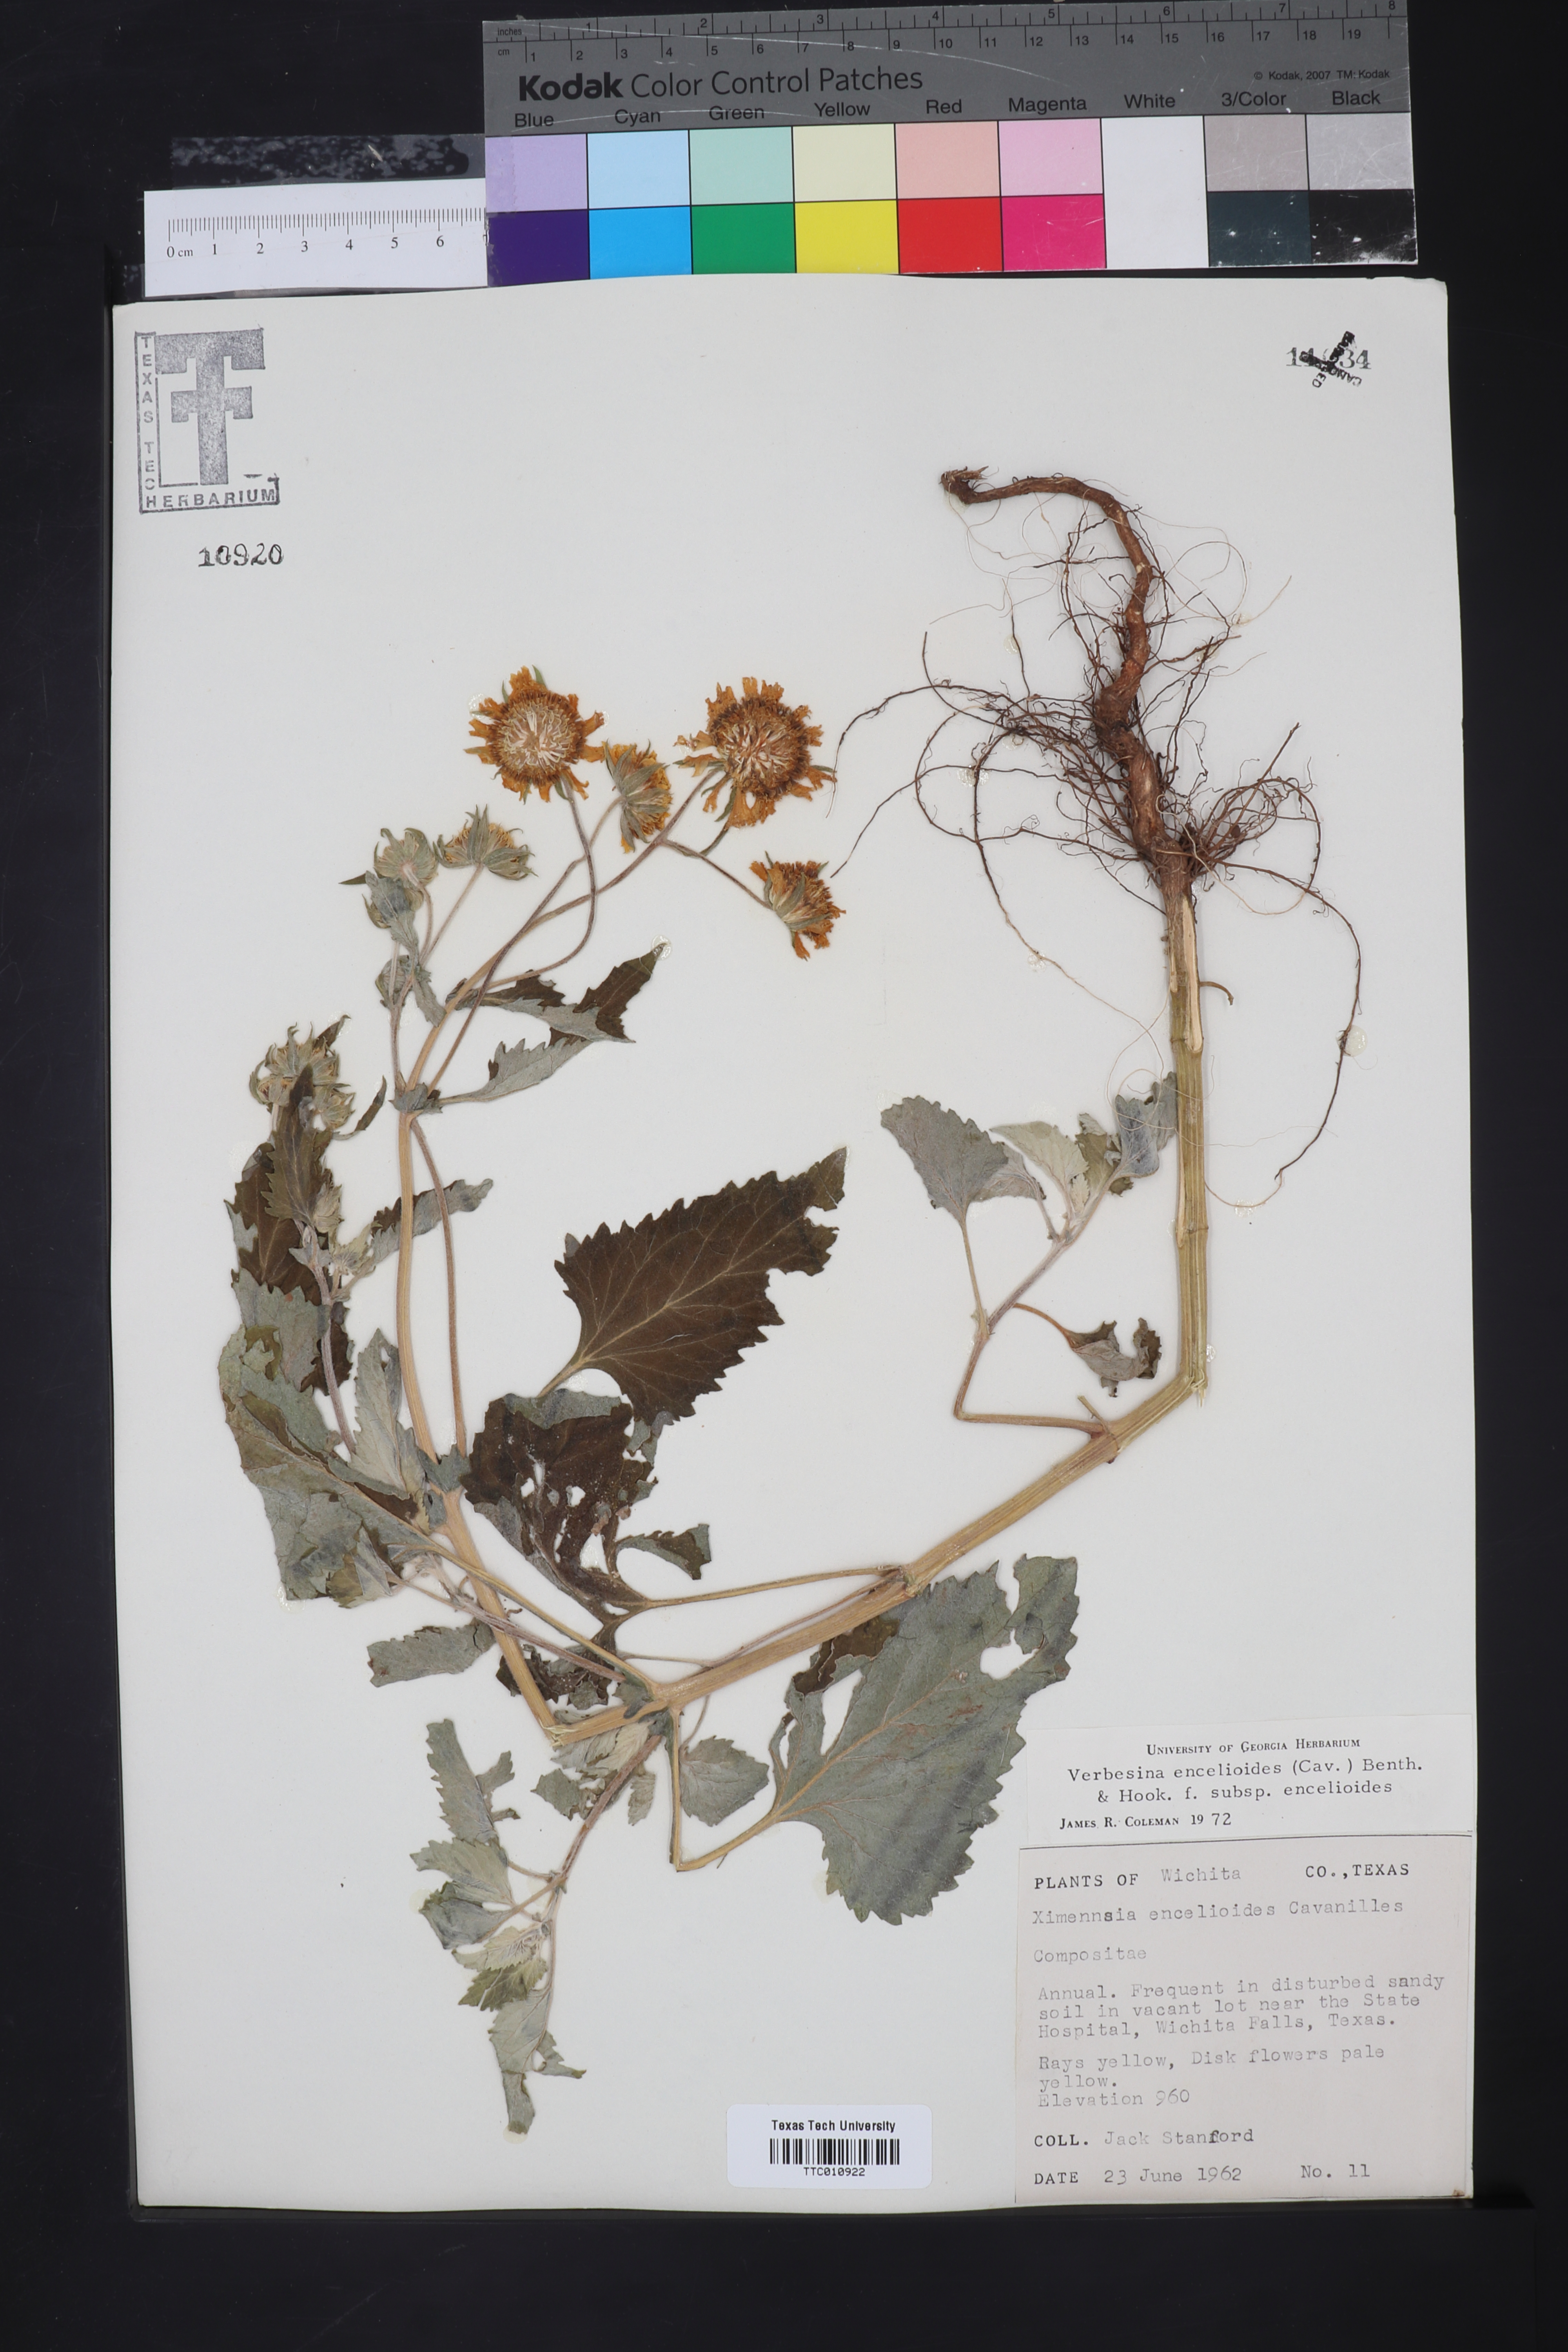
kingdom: Plantae
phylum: Tracheophyta
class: Magnoliopsida
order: Asterales
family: Asteraceae
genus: Verbesina
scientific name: Verbesina encelioides
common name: Golden crownbeard
